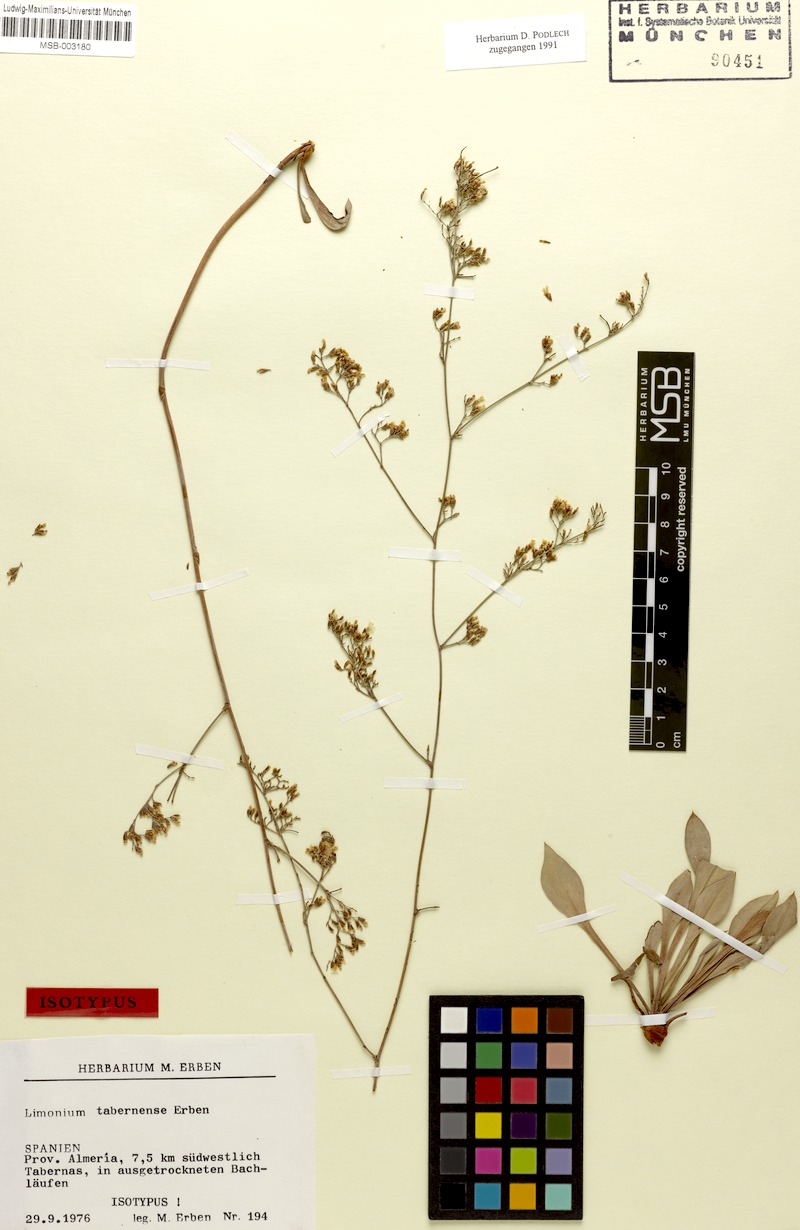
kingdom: Plantae
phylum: Tracheophyta
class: Magnoliopsida
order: Caryophyllales
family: Plumbaginaceae
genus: Limonium
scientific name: Limonium tabernense
